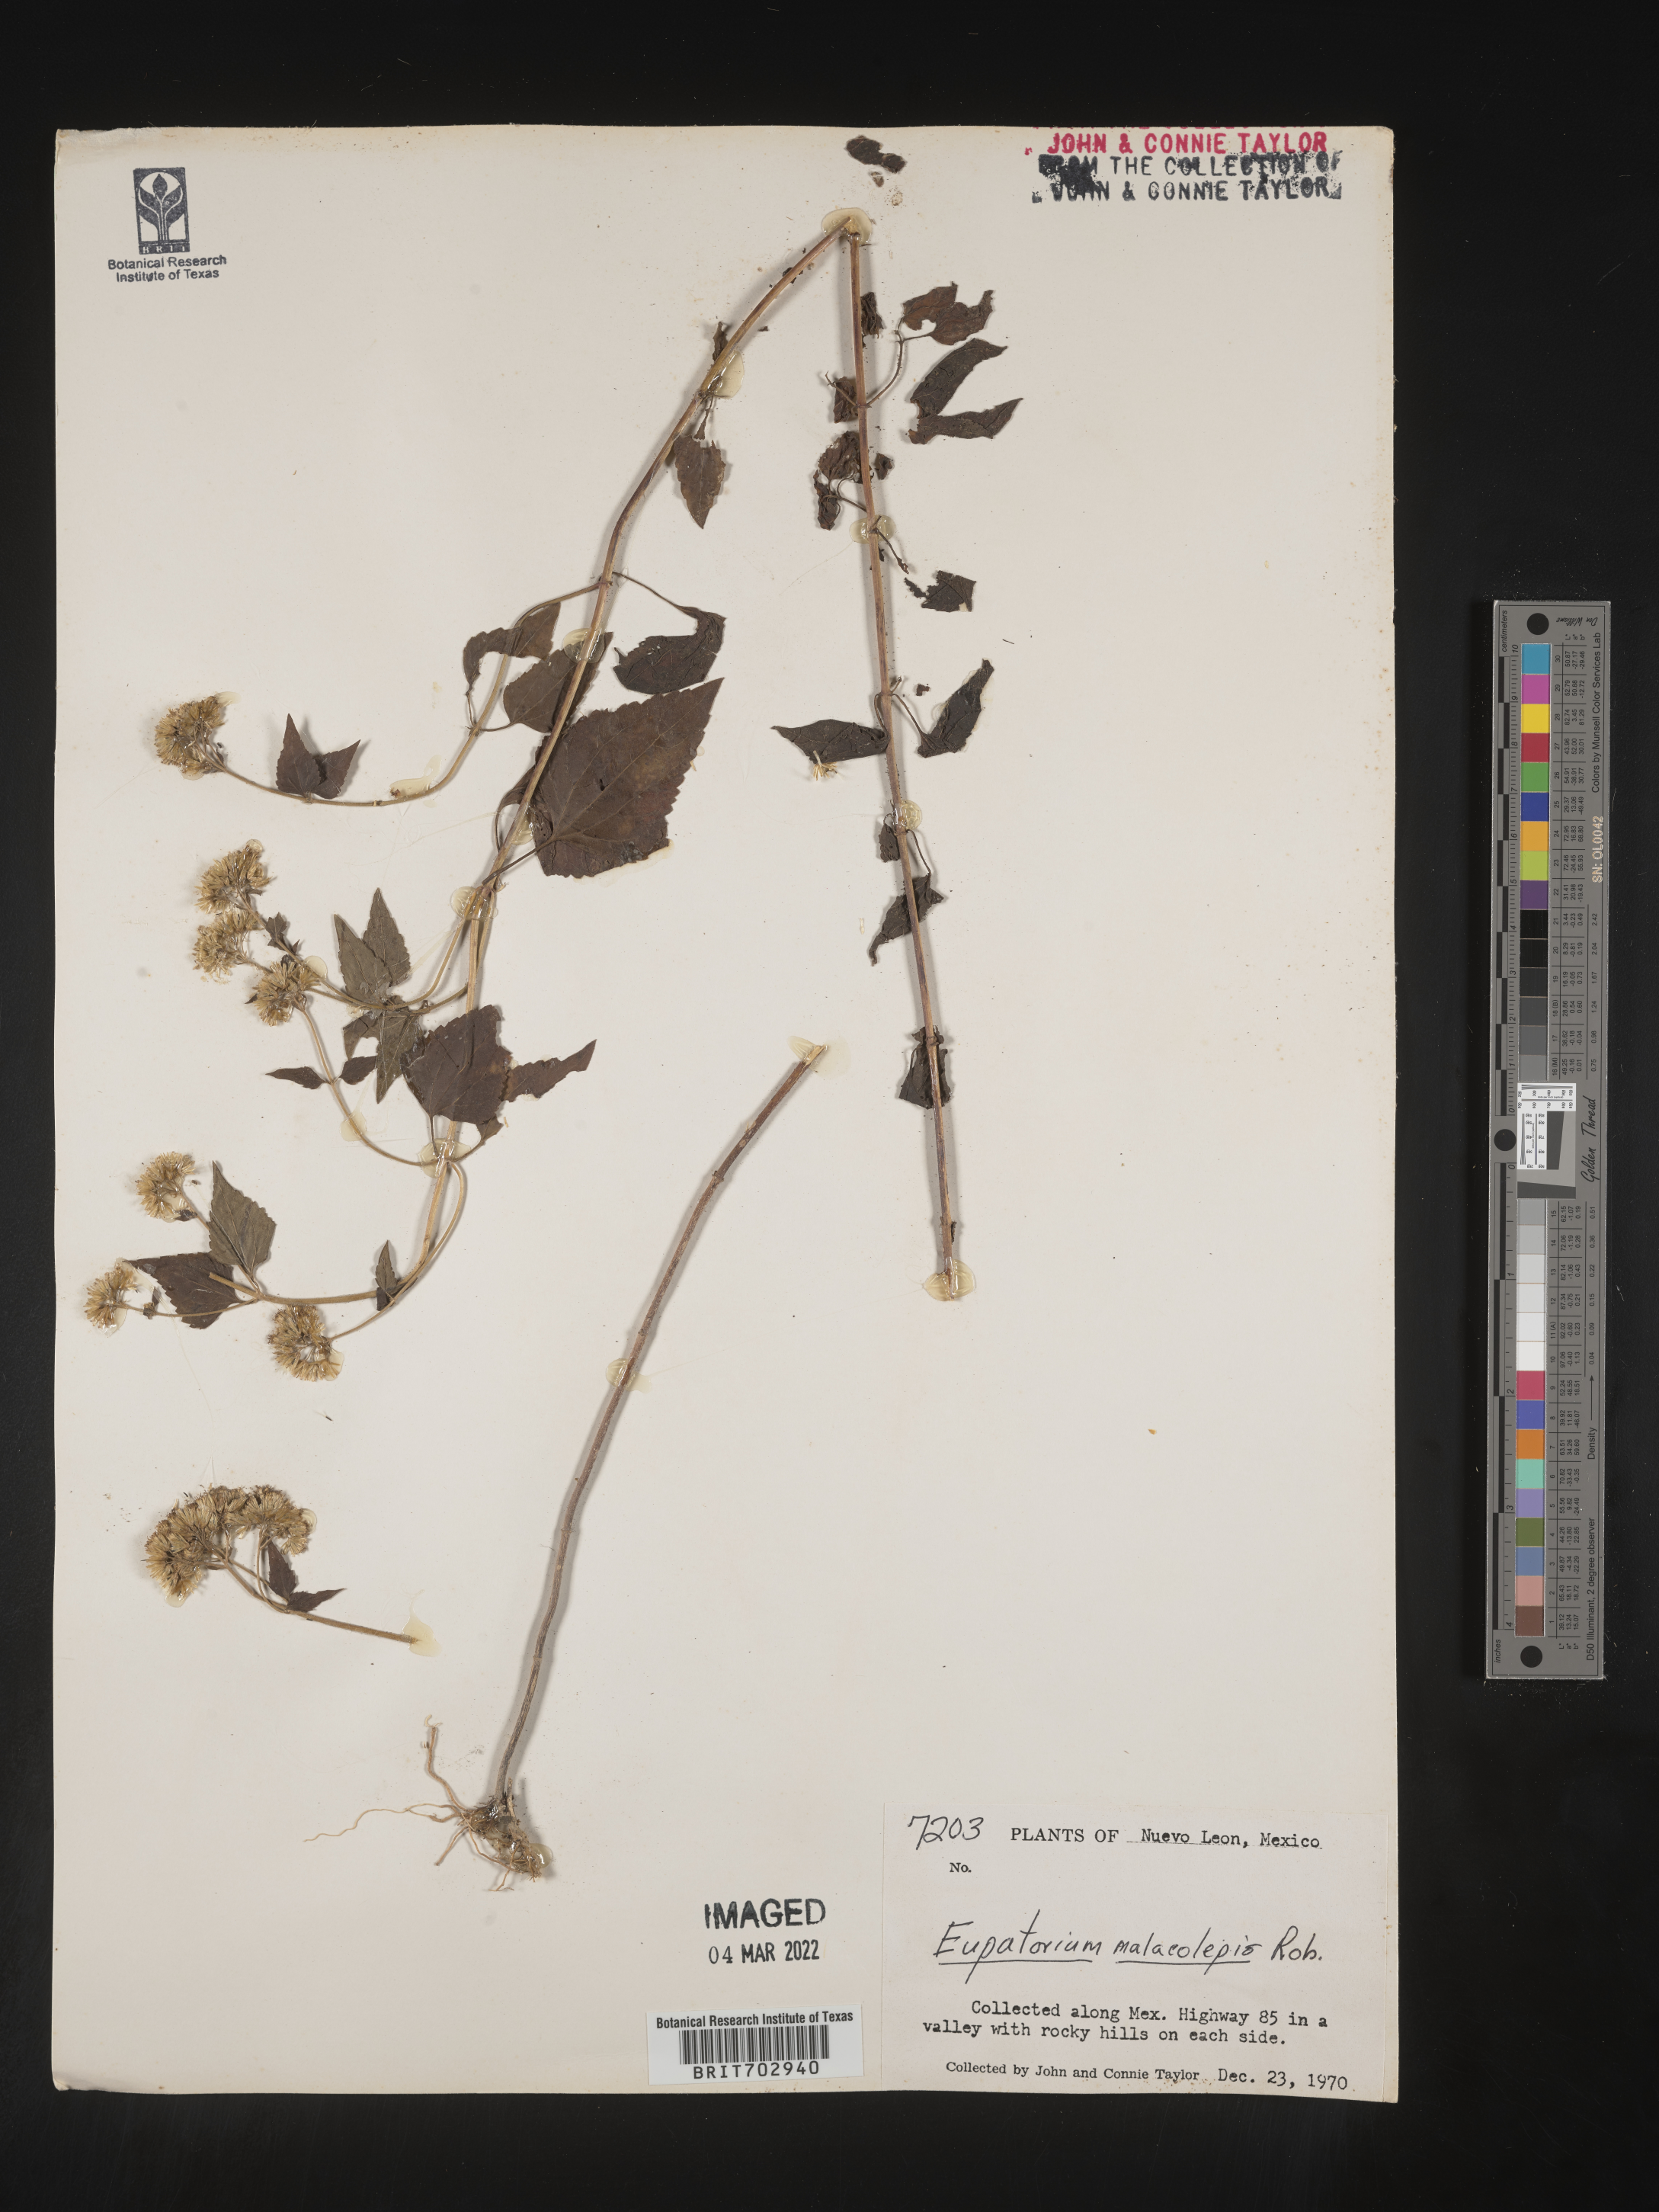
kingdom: Plantae
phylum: Tracheophyta
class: Magnoliopsida
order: Asterales
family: Asteraceae
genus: Eupatorium
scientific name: Eupatorium
